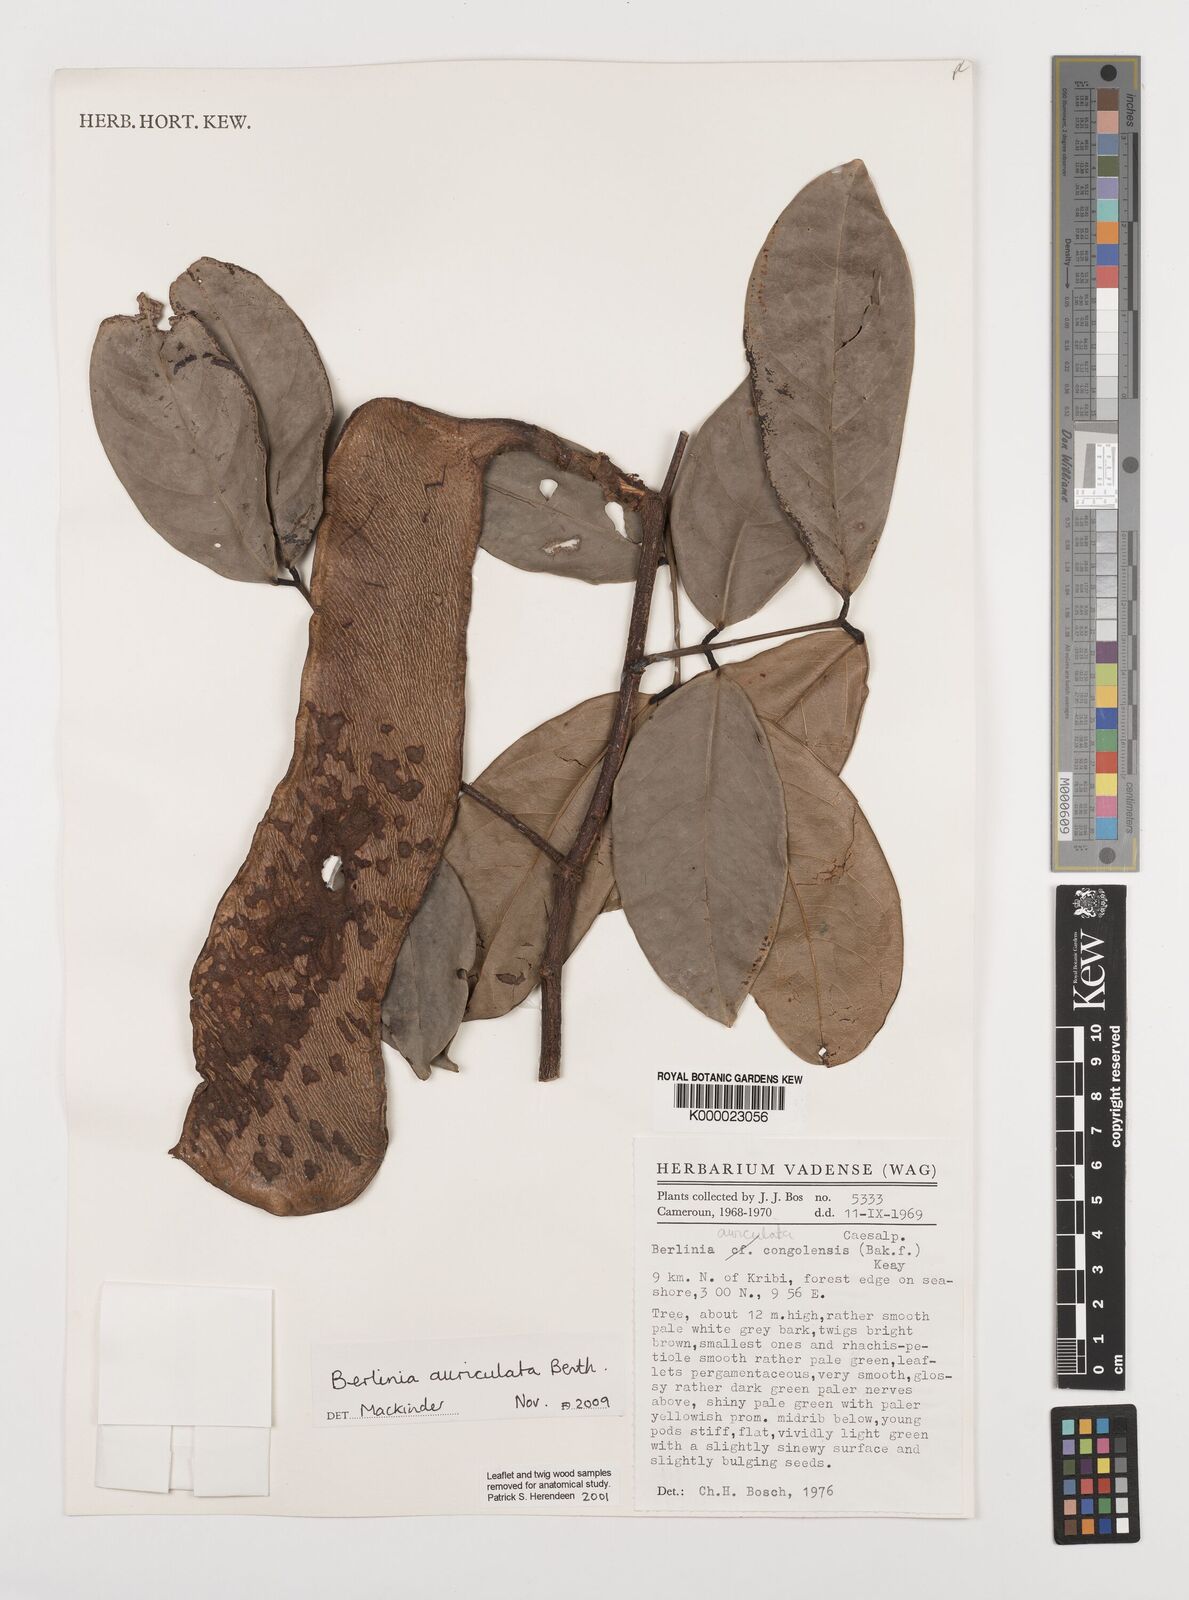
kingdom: Plantae
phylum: Tracheophyta
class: Magnoliopsida
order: Fabales
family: Fabaceae
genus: Berlinia
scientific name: Berlinia auriculata
